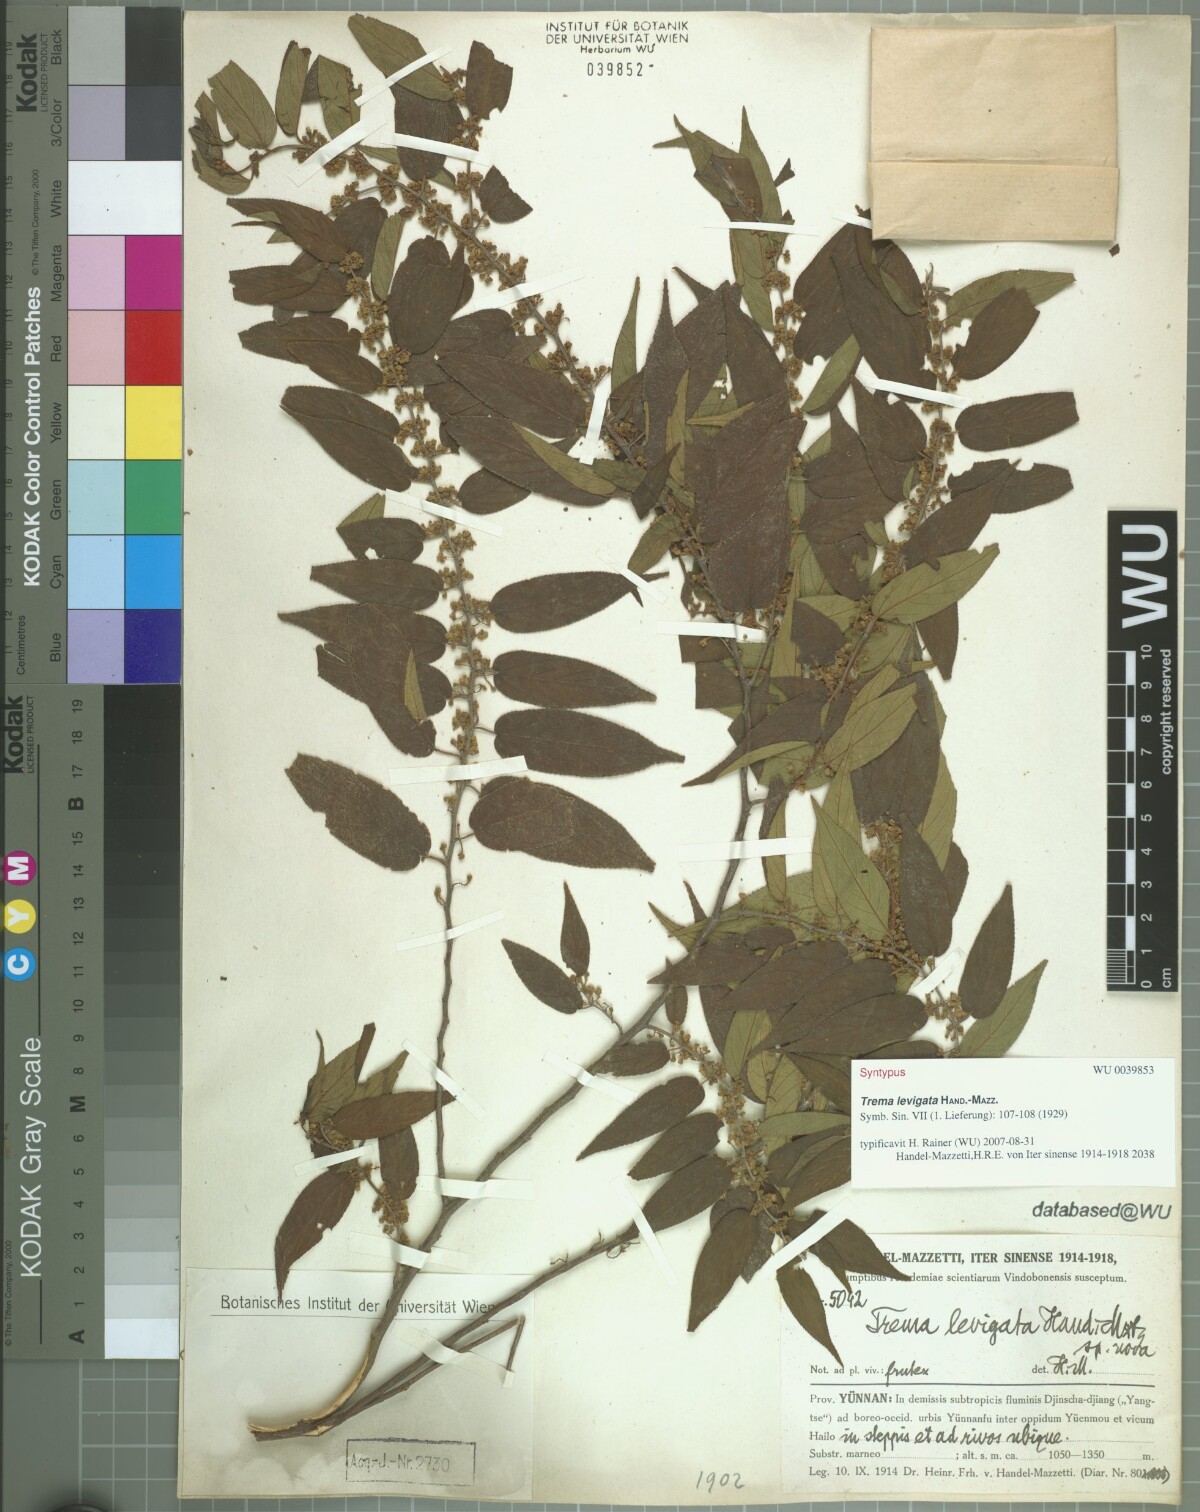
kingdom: Plantae
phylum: Tracheophyta
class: Magnoliopsida
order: Rosales
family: Cannabaceae
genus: Trema
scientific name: Trema levigatum
